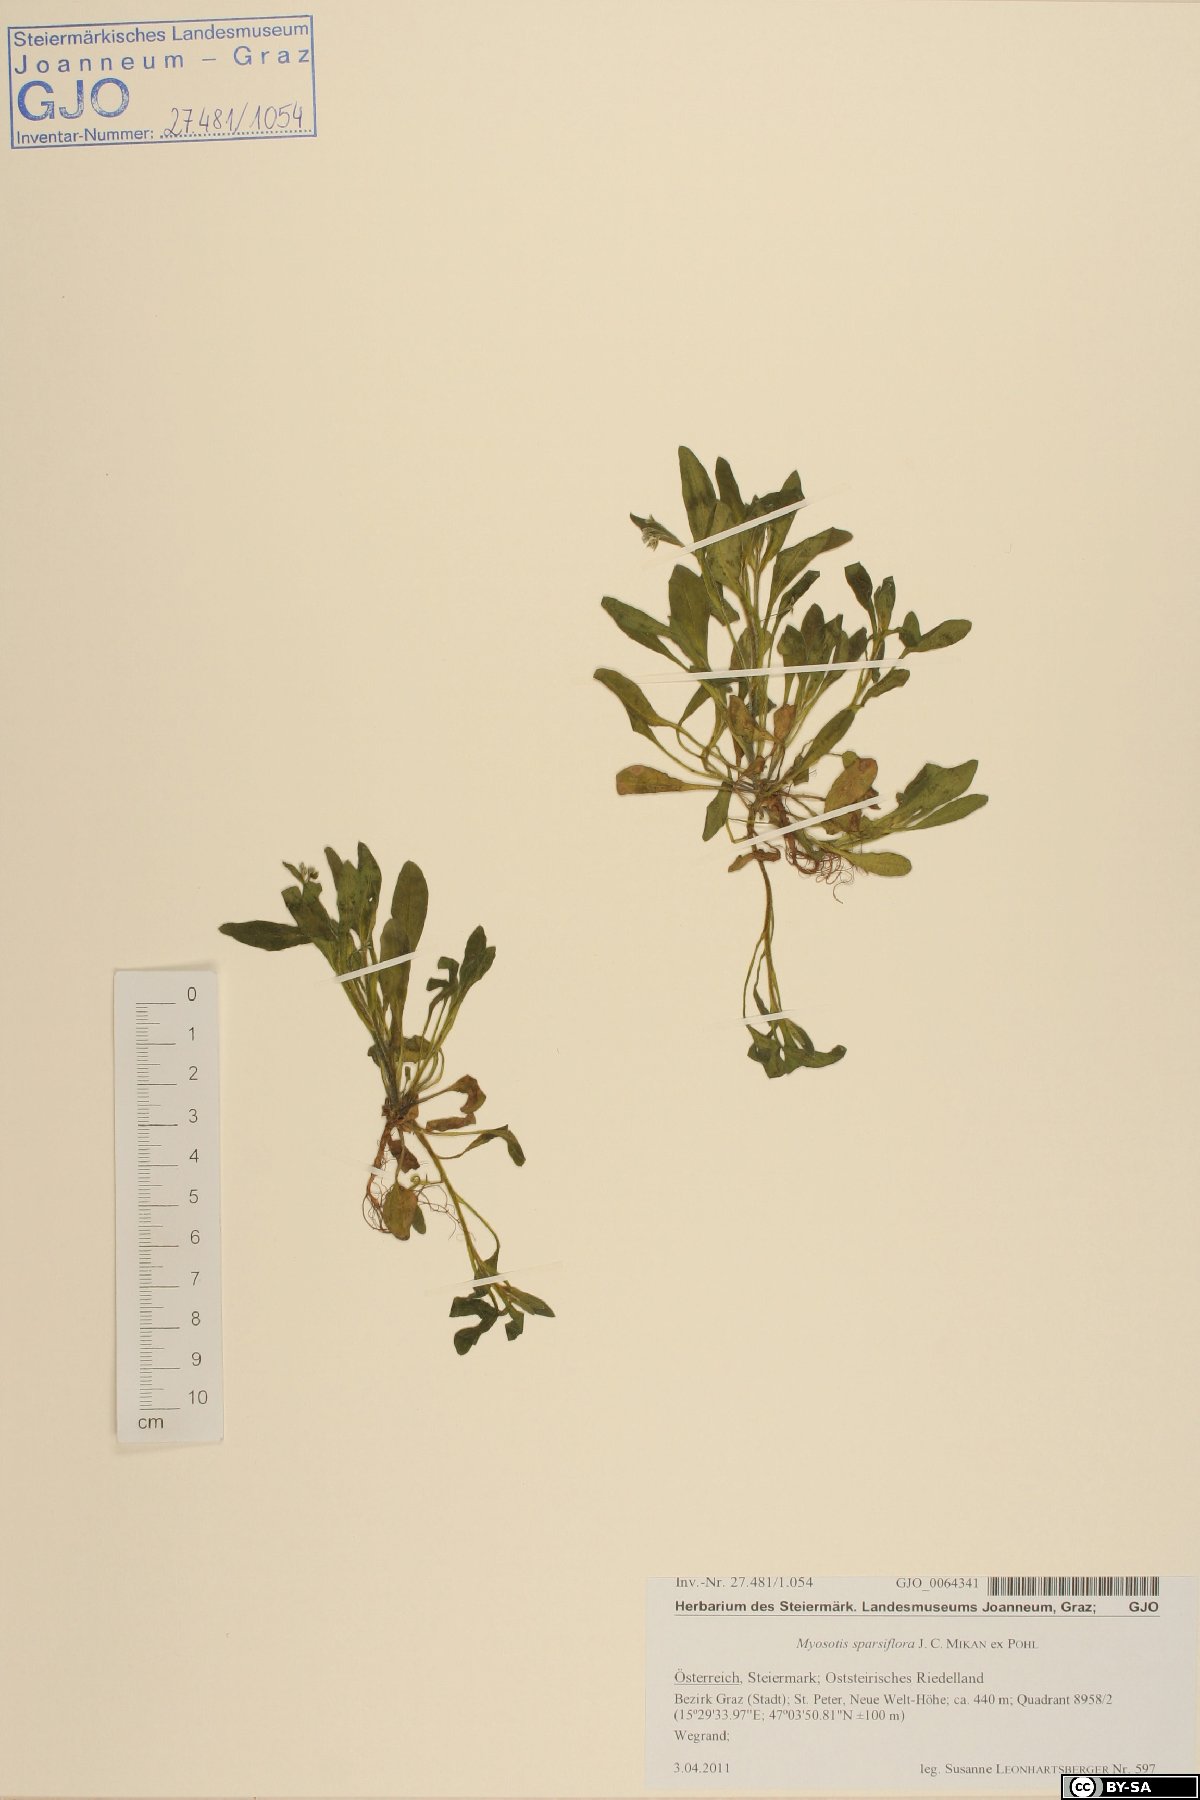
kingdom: Plantae
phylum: Tracheophyta
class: Magnoliopsida
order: Boraginales
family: Boraginaceae
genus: Myosotis
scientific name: Myosotis sparsiflora
